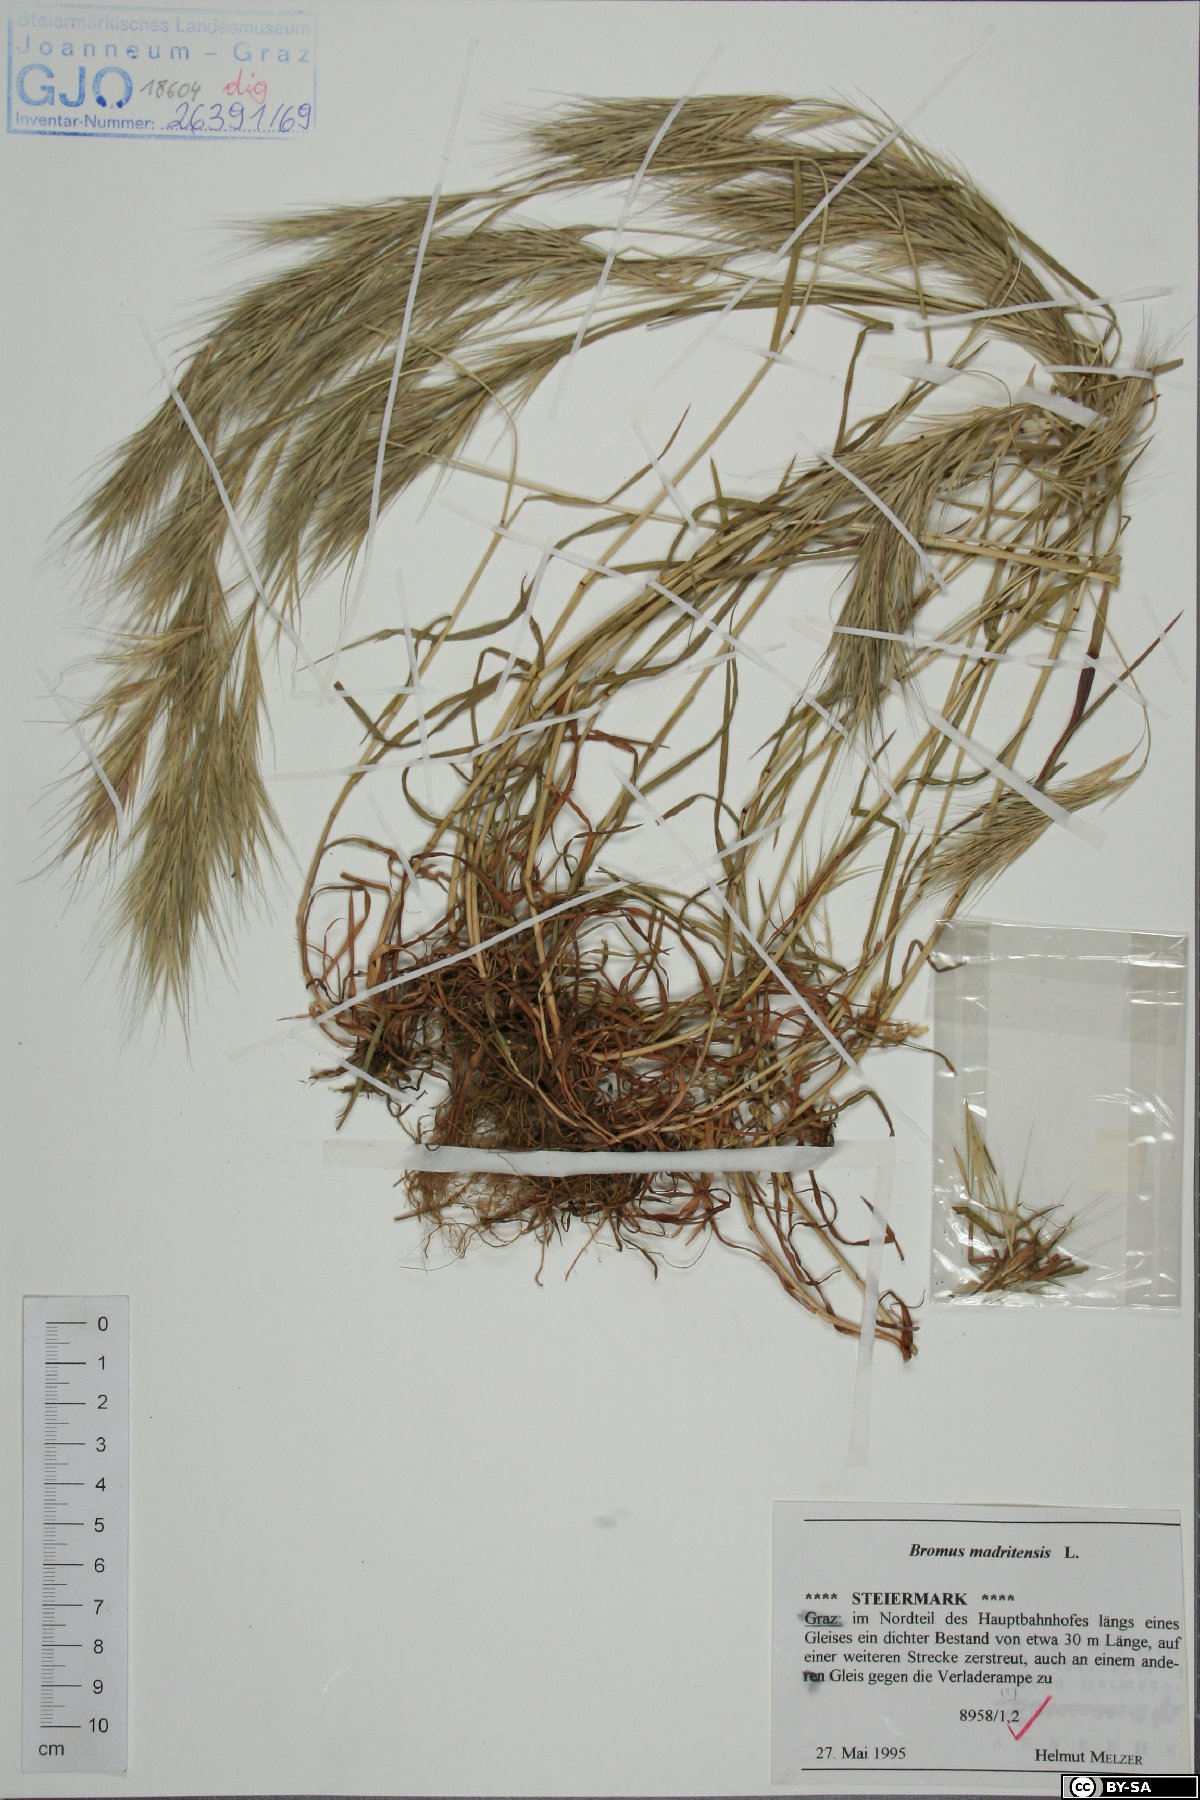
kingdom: Plantae
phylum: Tracheophyta
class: Liliopsida
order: Poales
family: Poaceae
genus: Bromus
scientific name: Bromus madritensis
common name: Compact brome
